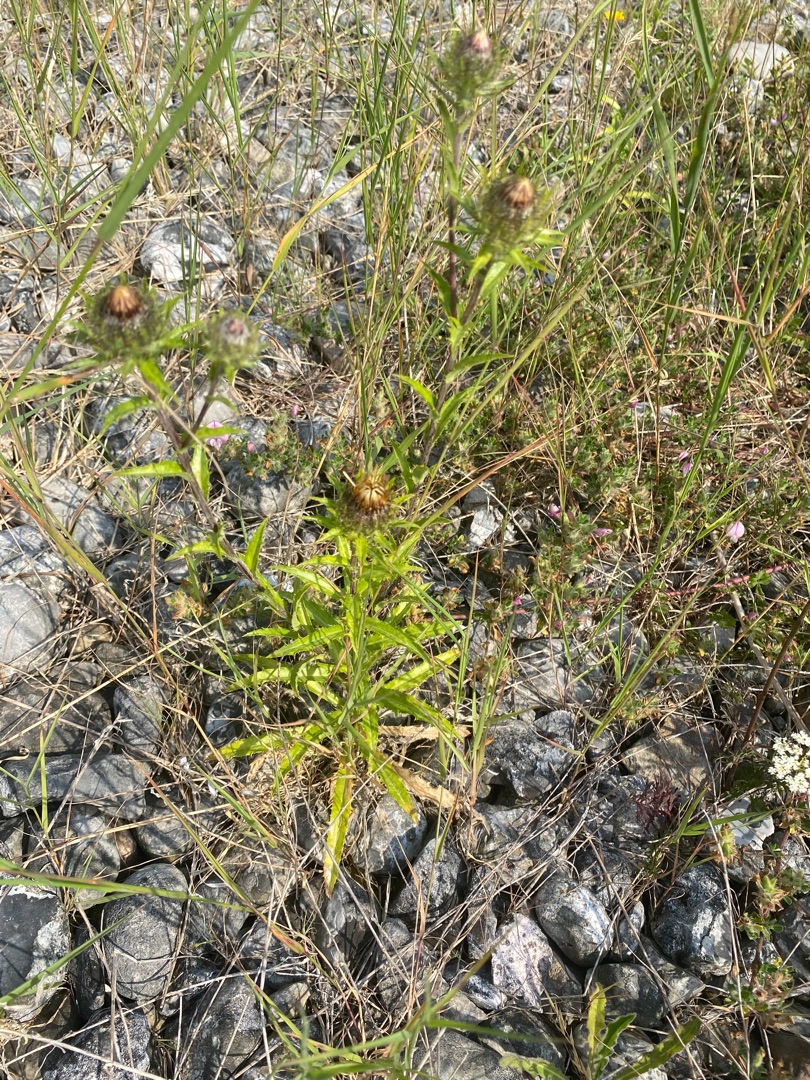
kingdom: Plantae
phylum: Tracheophyta
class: Magnoliopsida
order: Asterales
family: Asteraceae
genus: Carlina
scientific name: Carlina vulgaris
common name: Bakketidsel
